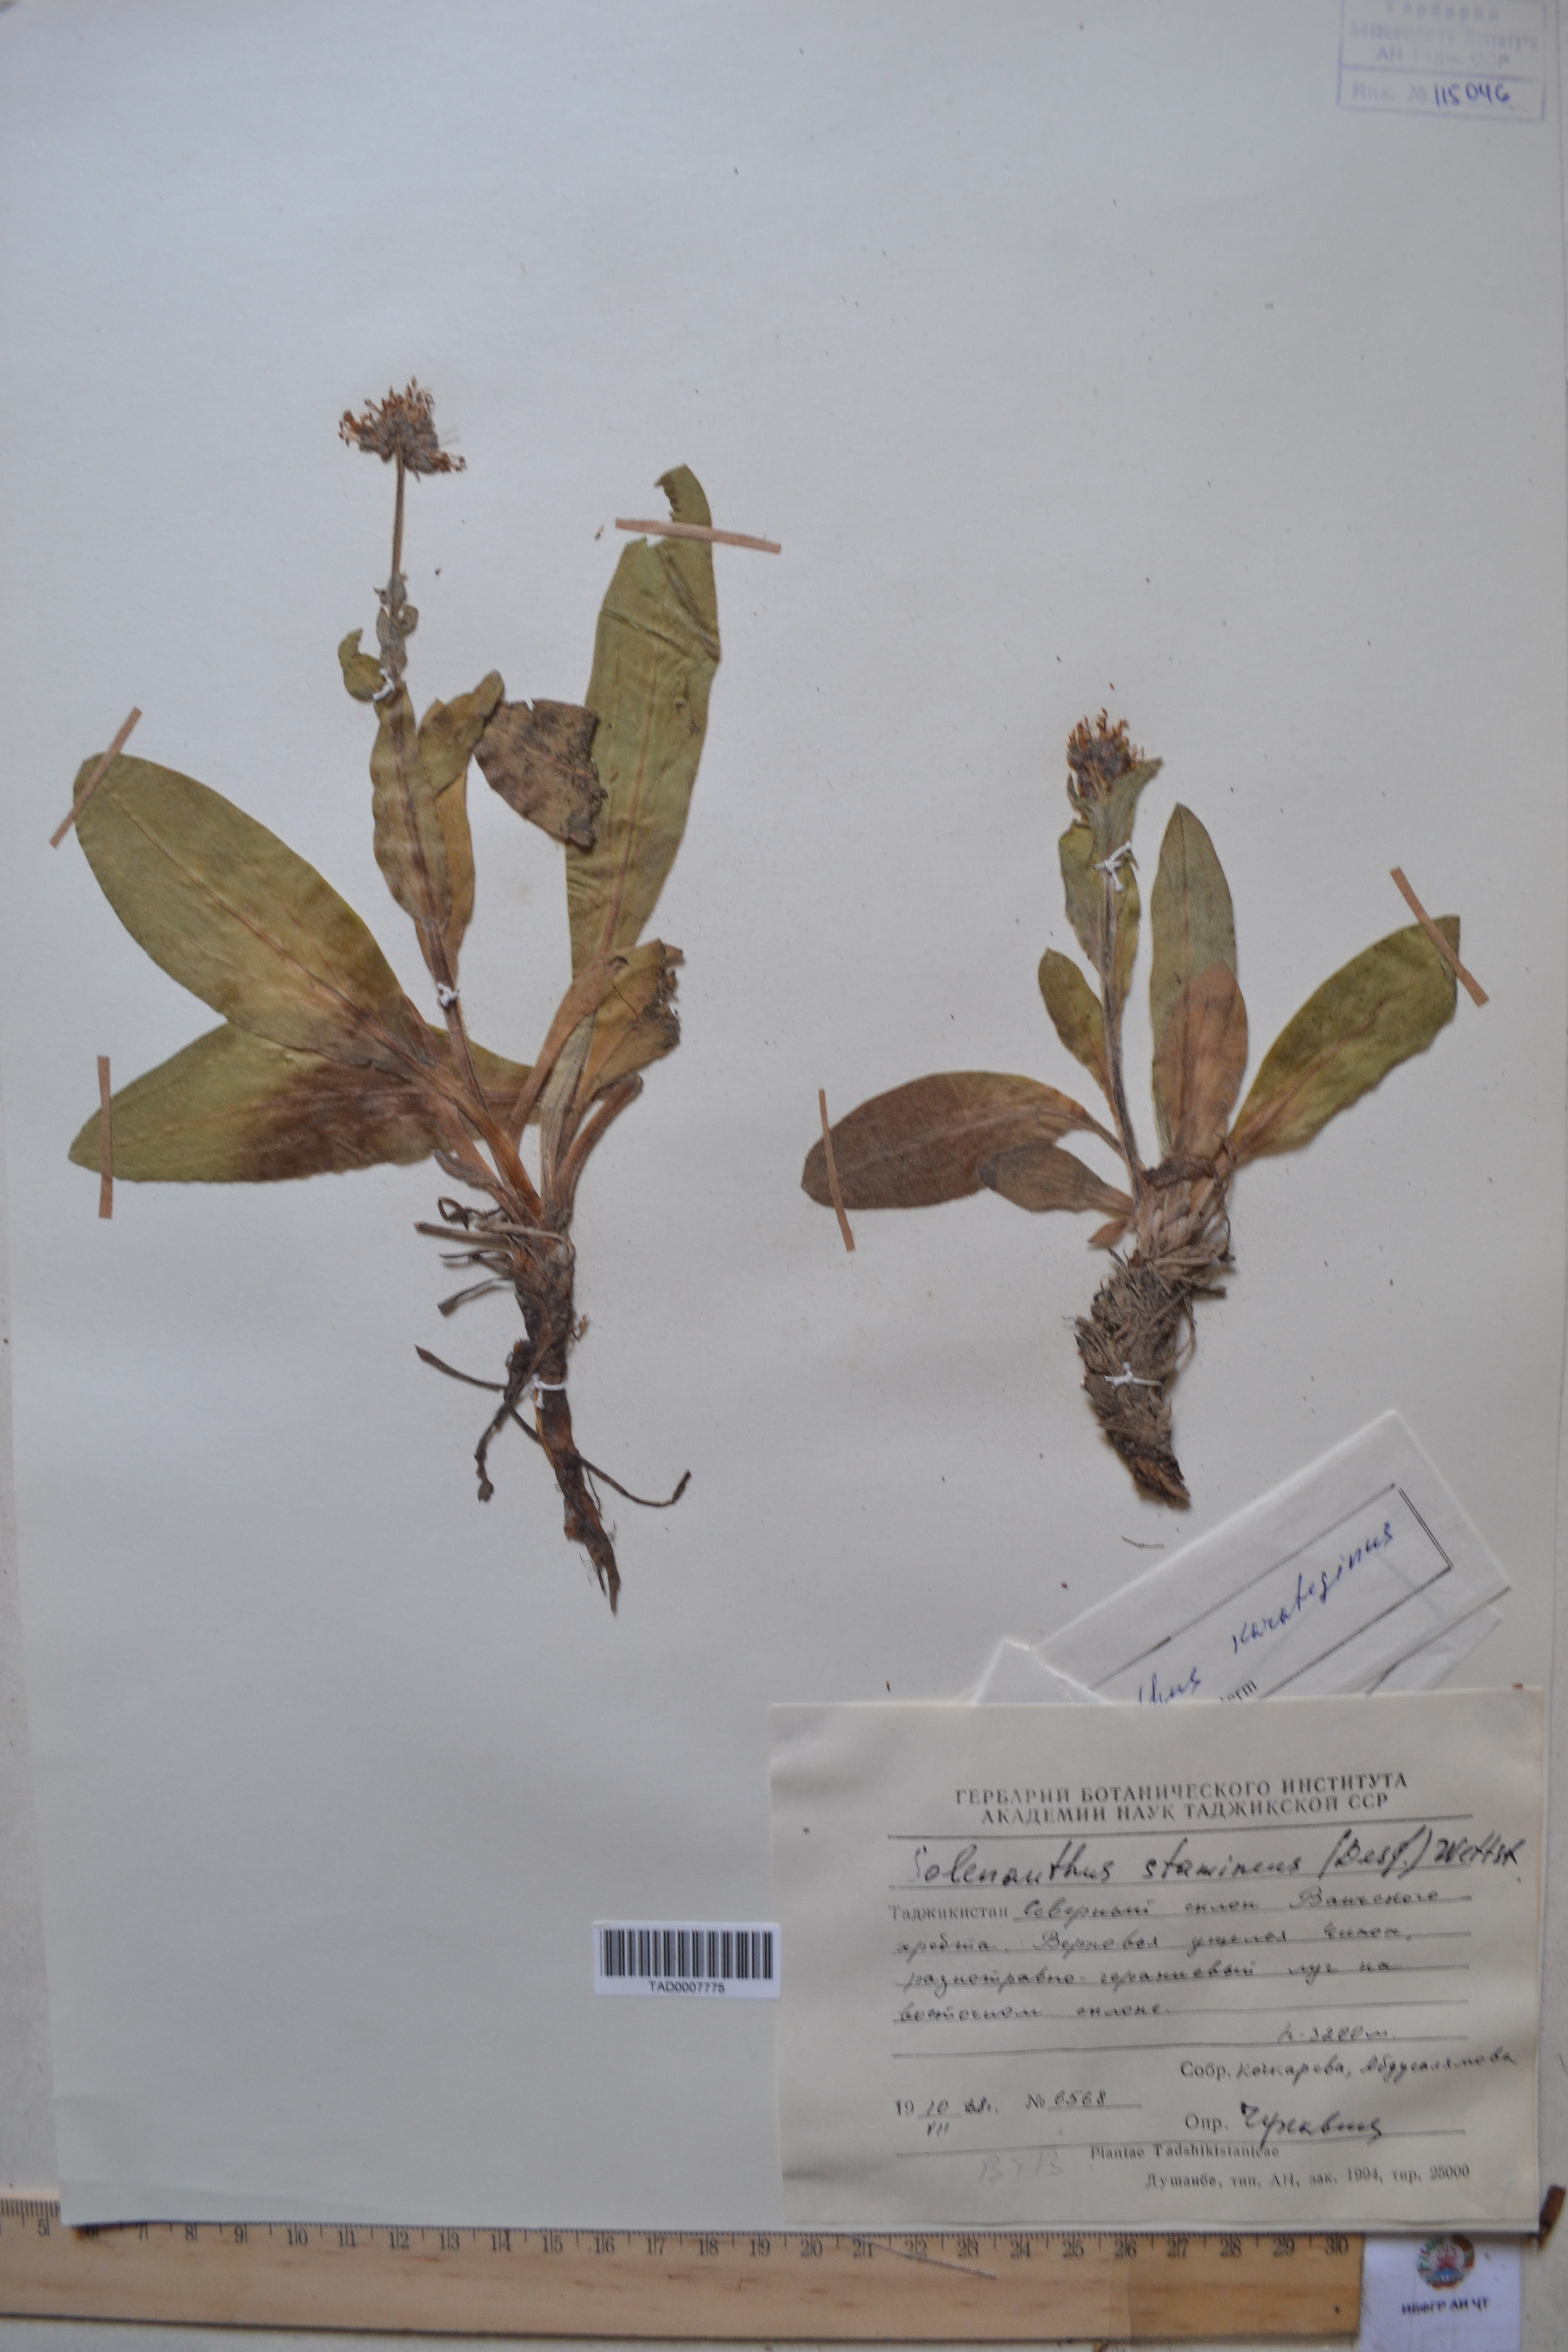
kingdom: Plantae
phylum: Tracheophyta
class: Magnoliopsida
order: Boraginales
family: Boraginaceae
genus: Solenanthus
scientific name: Solenanthus karateginus
